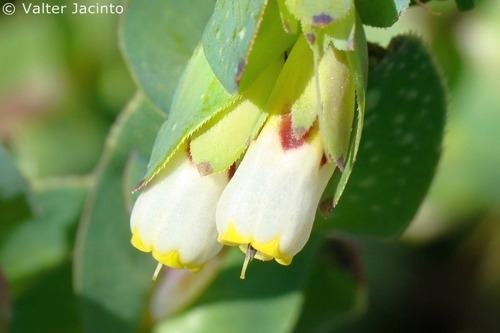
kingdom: Plantae
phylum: Tracheophyta
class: Magnoliopsida
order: Boraginales
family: Boraginaceae
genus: Cerinthe
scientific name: Cerinthe major
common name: Greater honeywort
